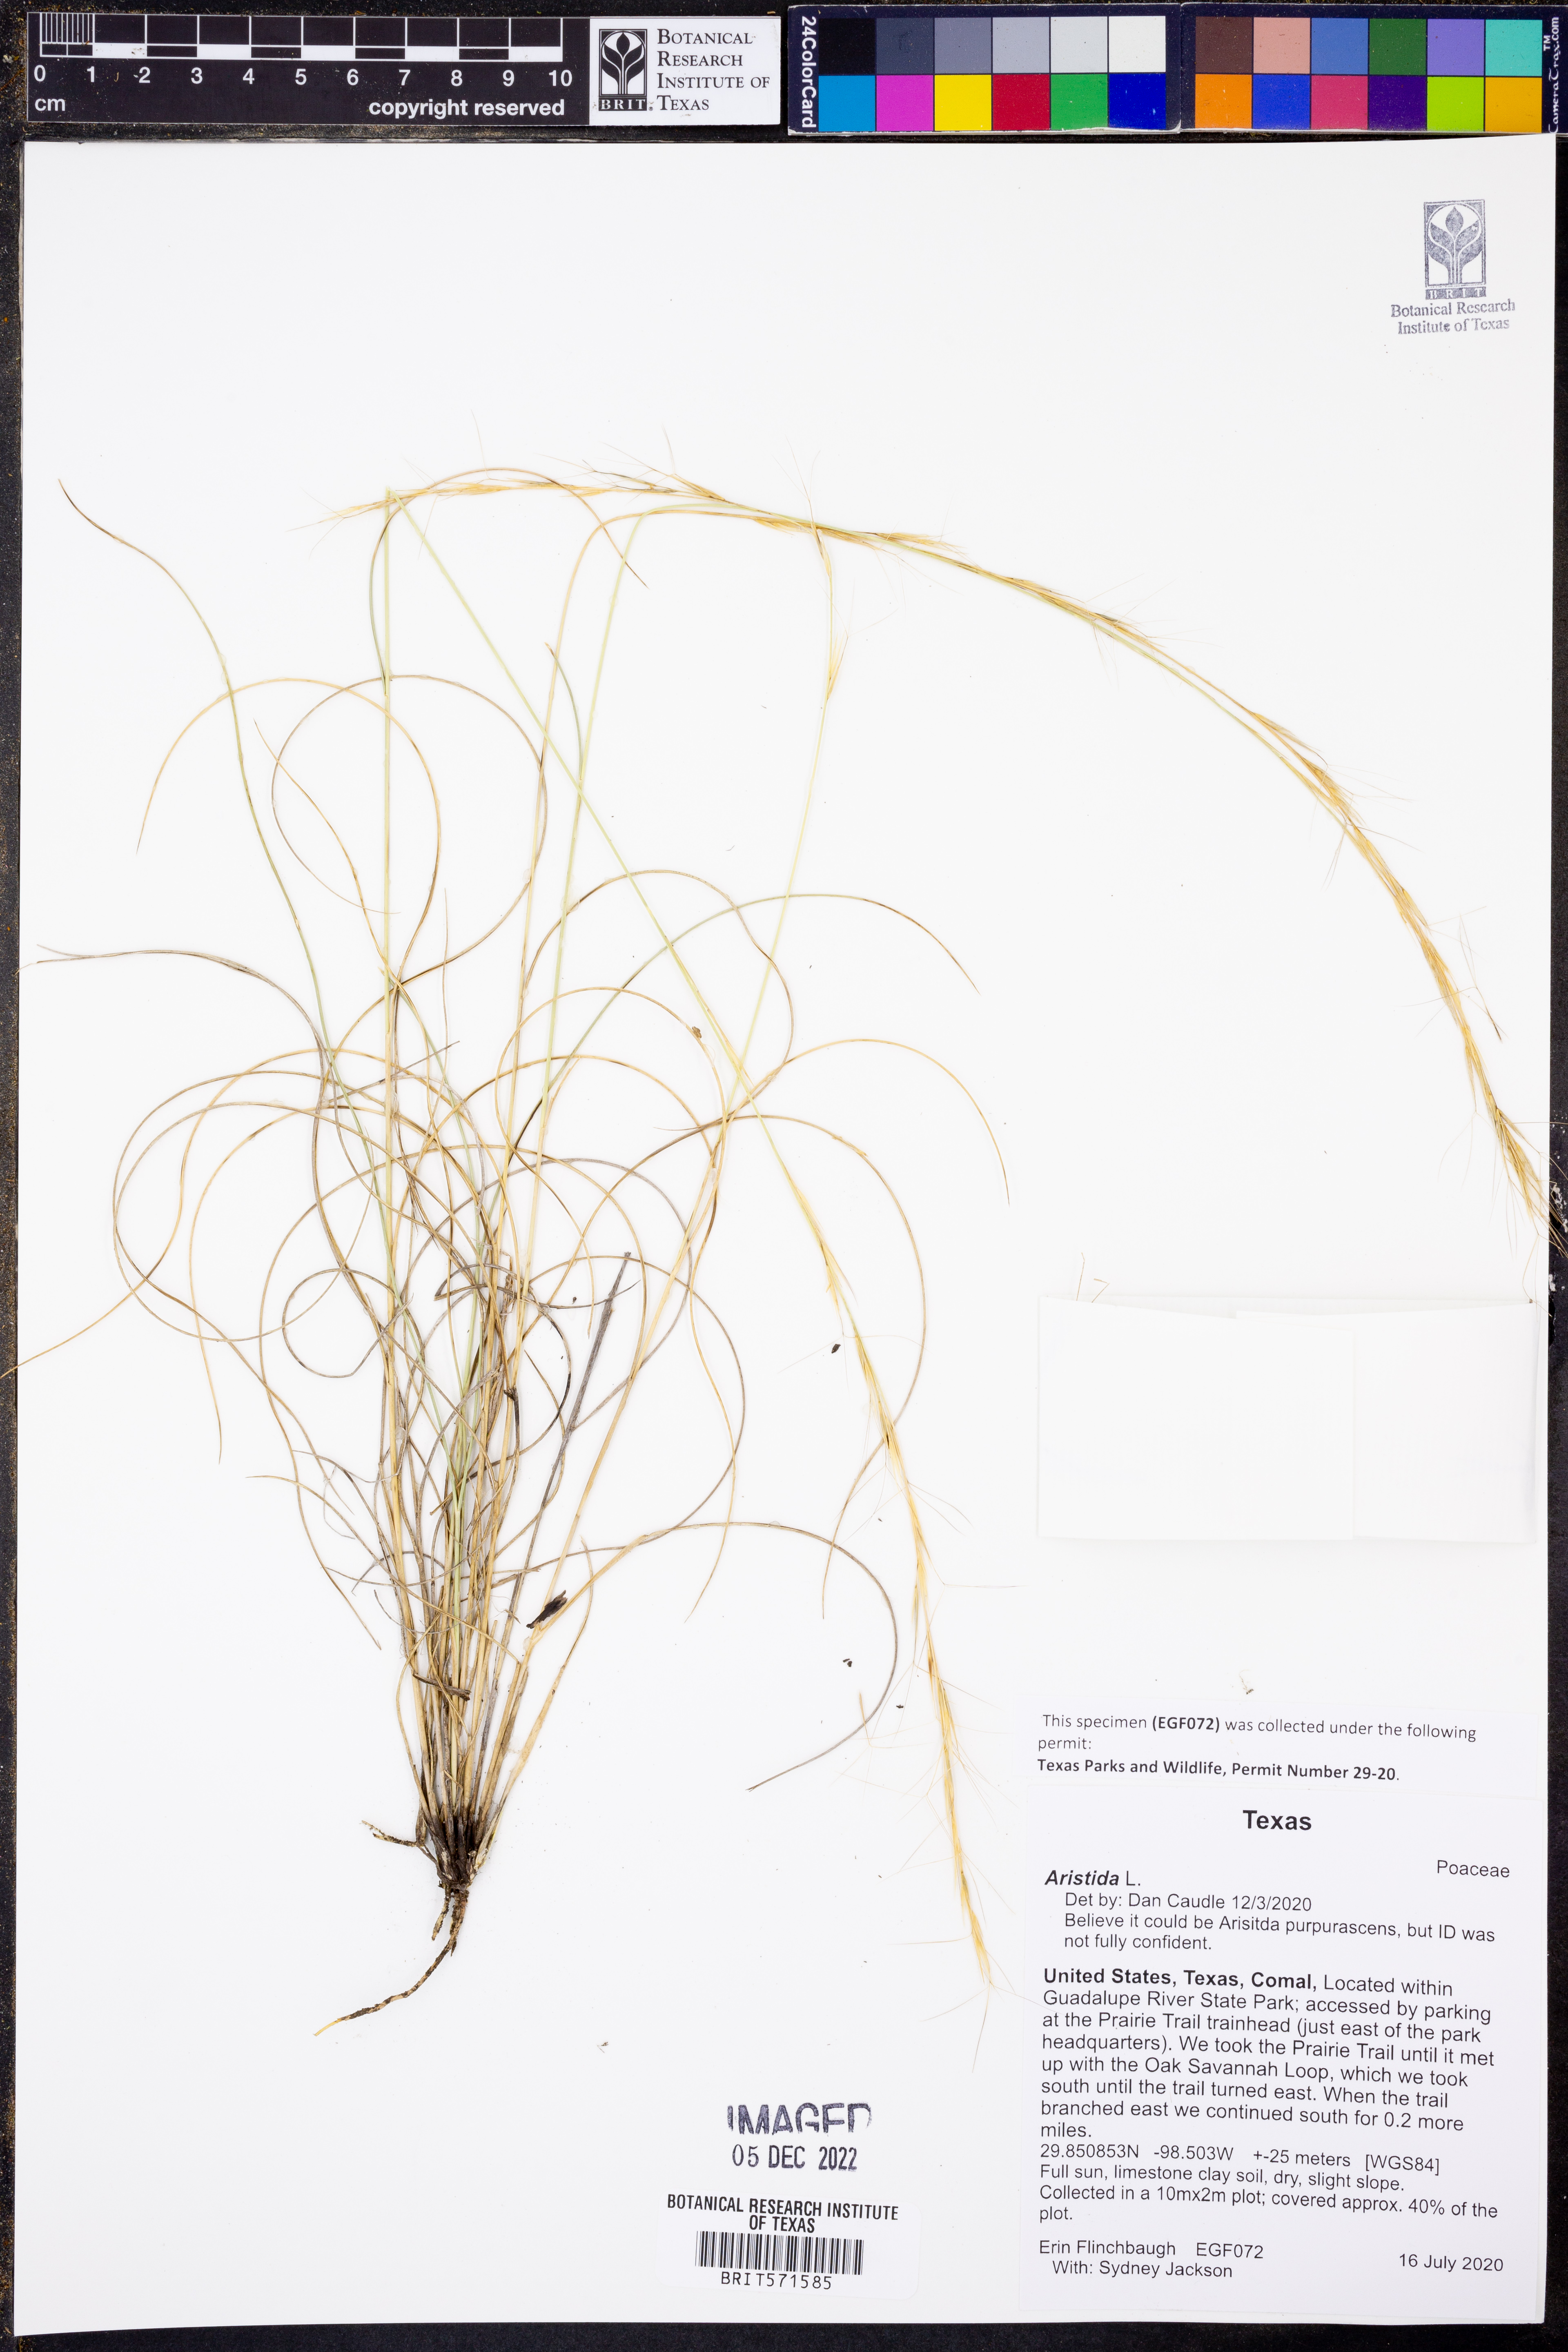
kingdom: Plantae
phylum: Tracheophyta
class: Liliopsida
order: Poales
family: Poaceae
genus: Aristida
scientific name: Aristida
